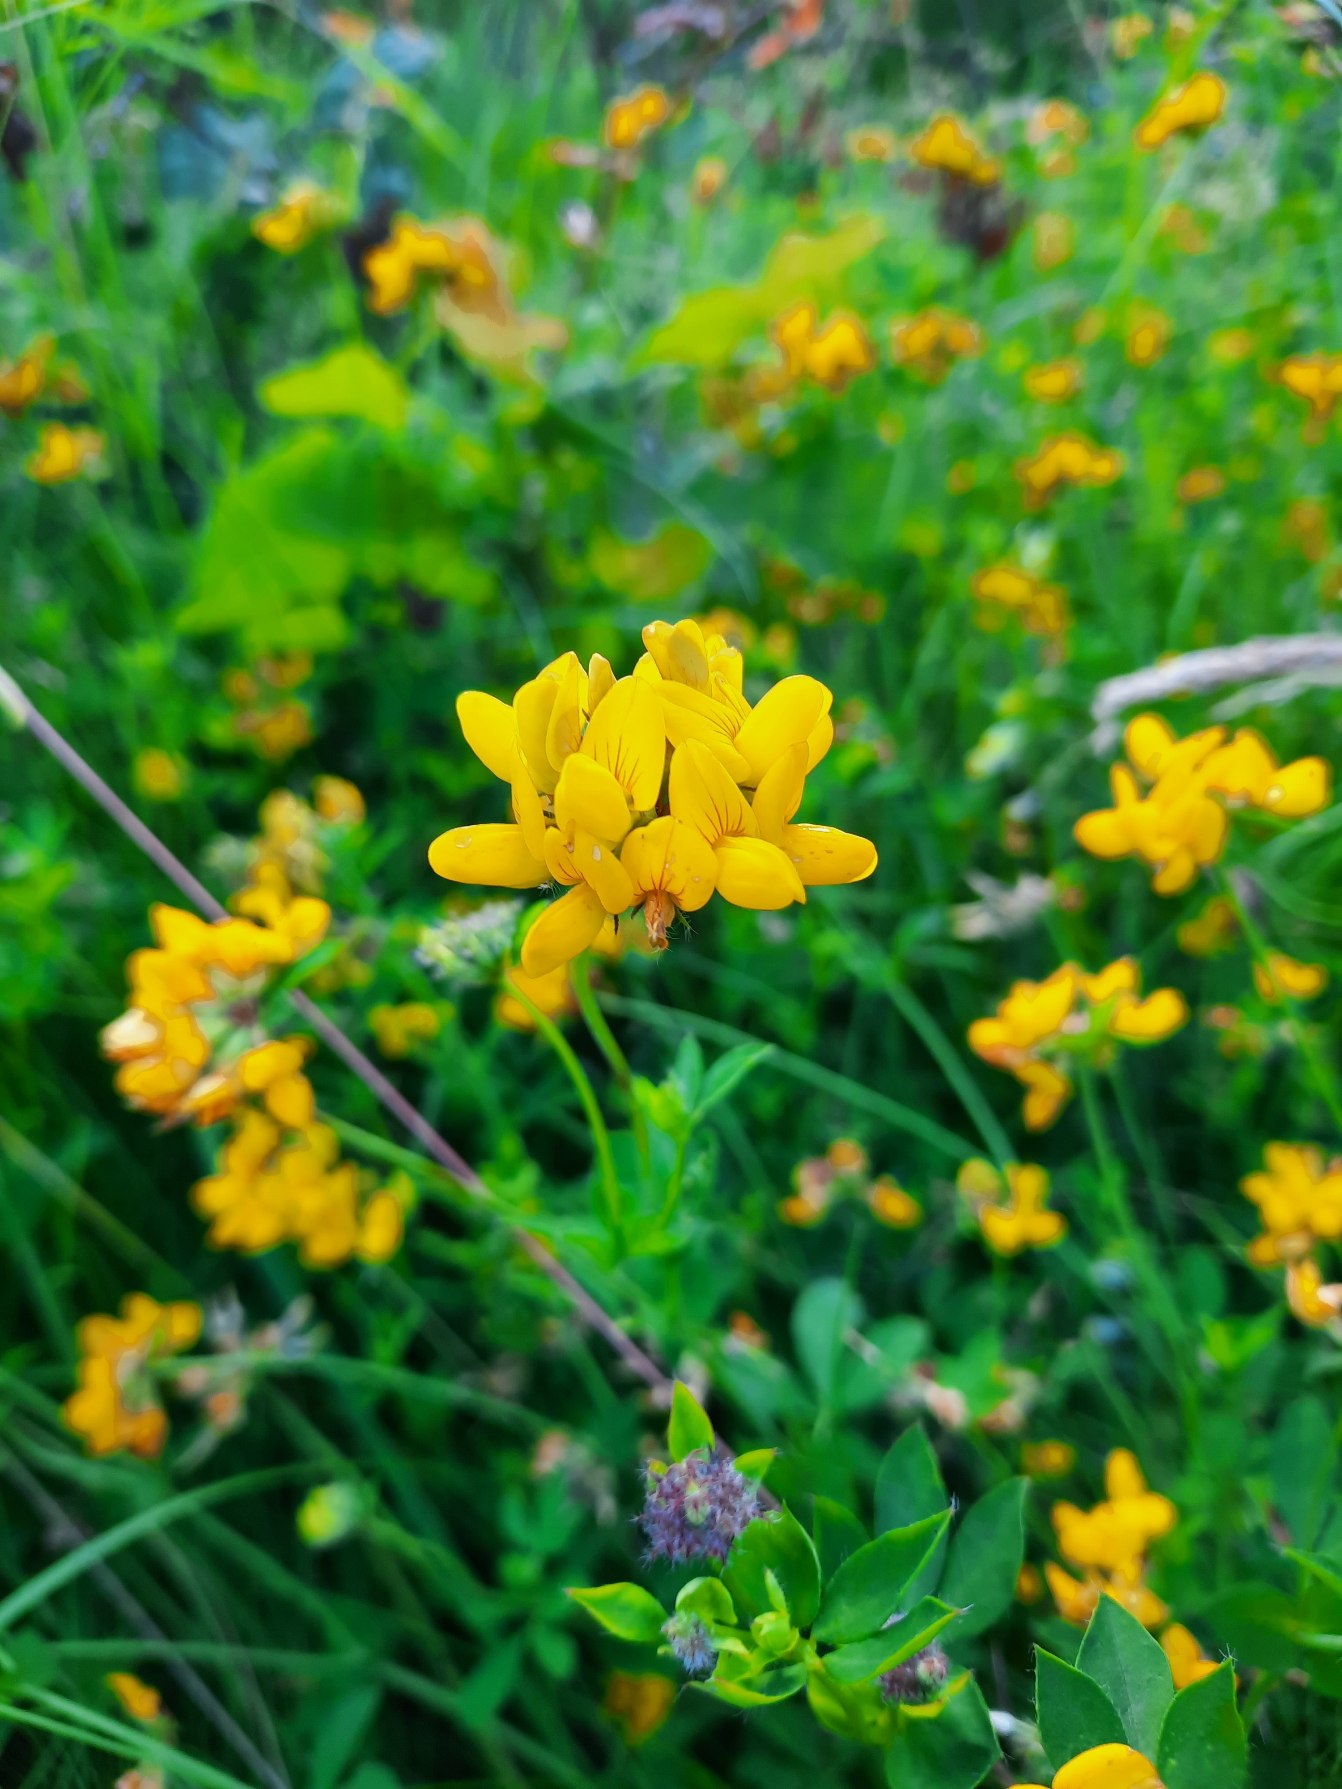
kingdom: Plantae
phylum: Tracheophyta
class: Magnoliopsida
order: Fabales
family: Fabaceae
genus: Lotus
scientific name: Lotus pedunculatus
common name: Sump-kællingetand
